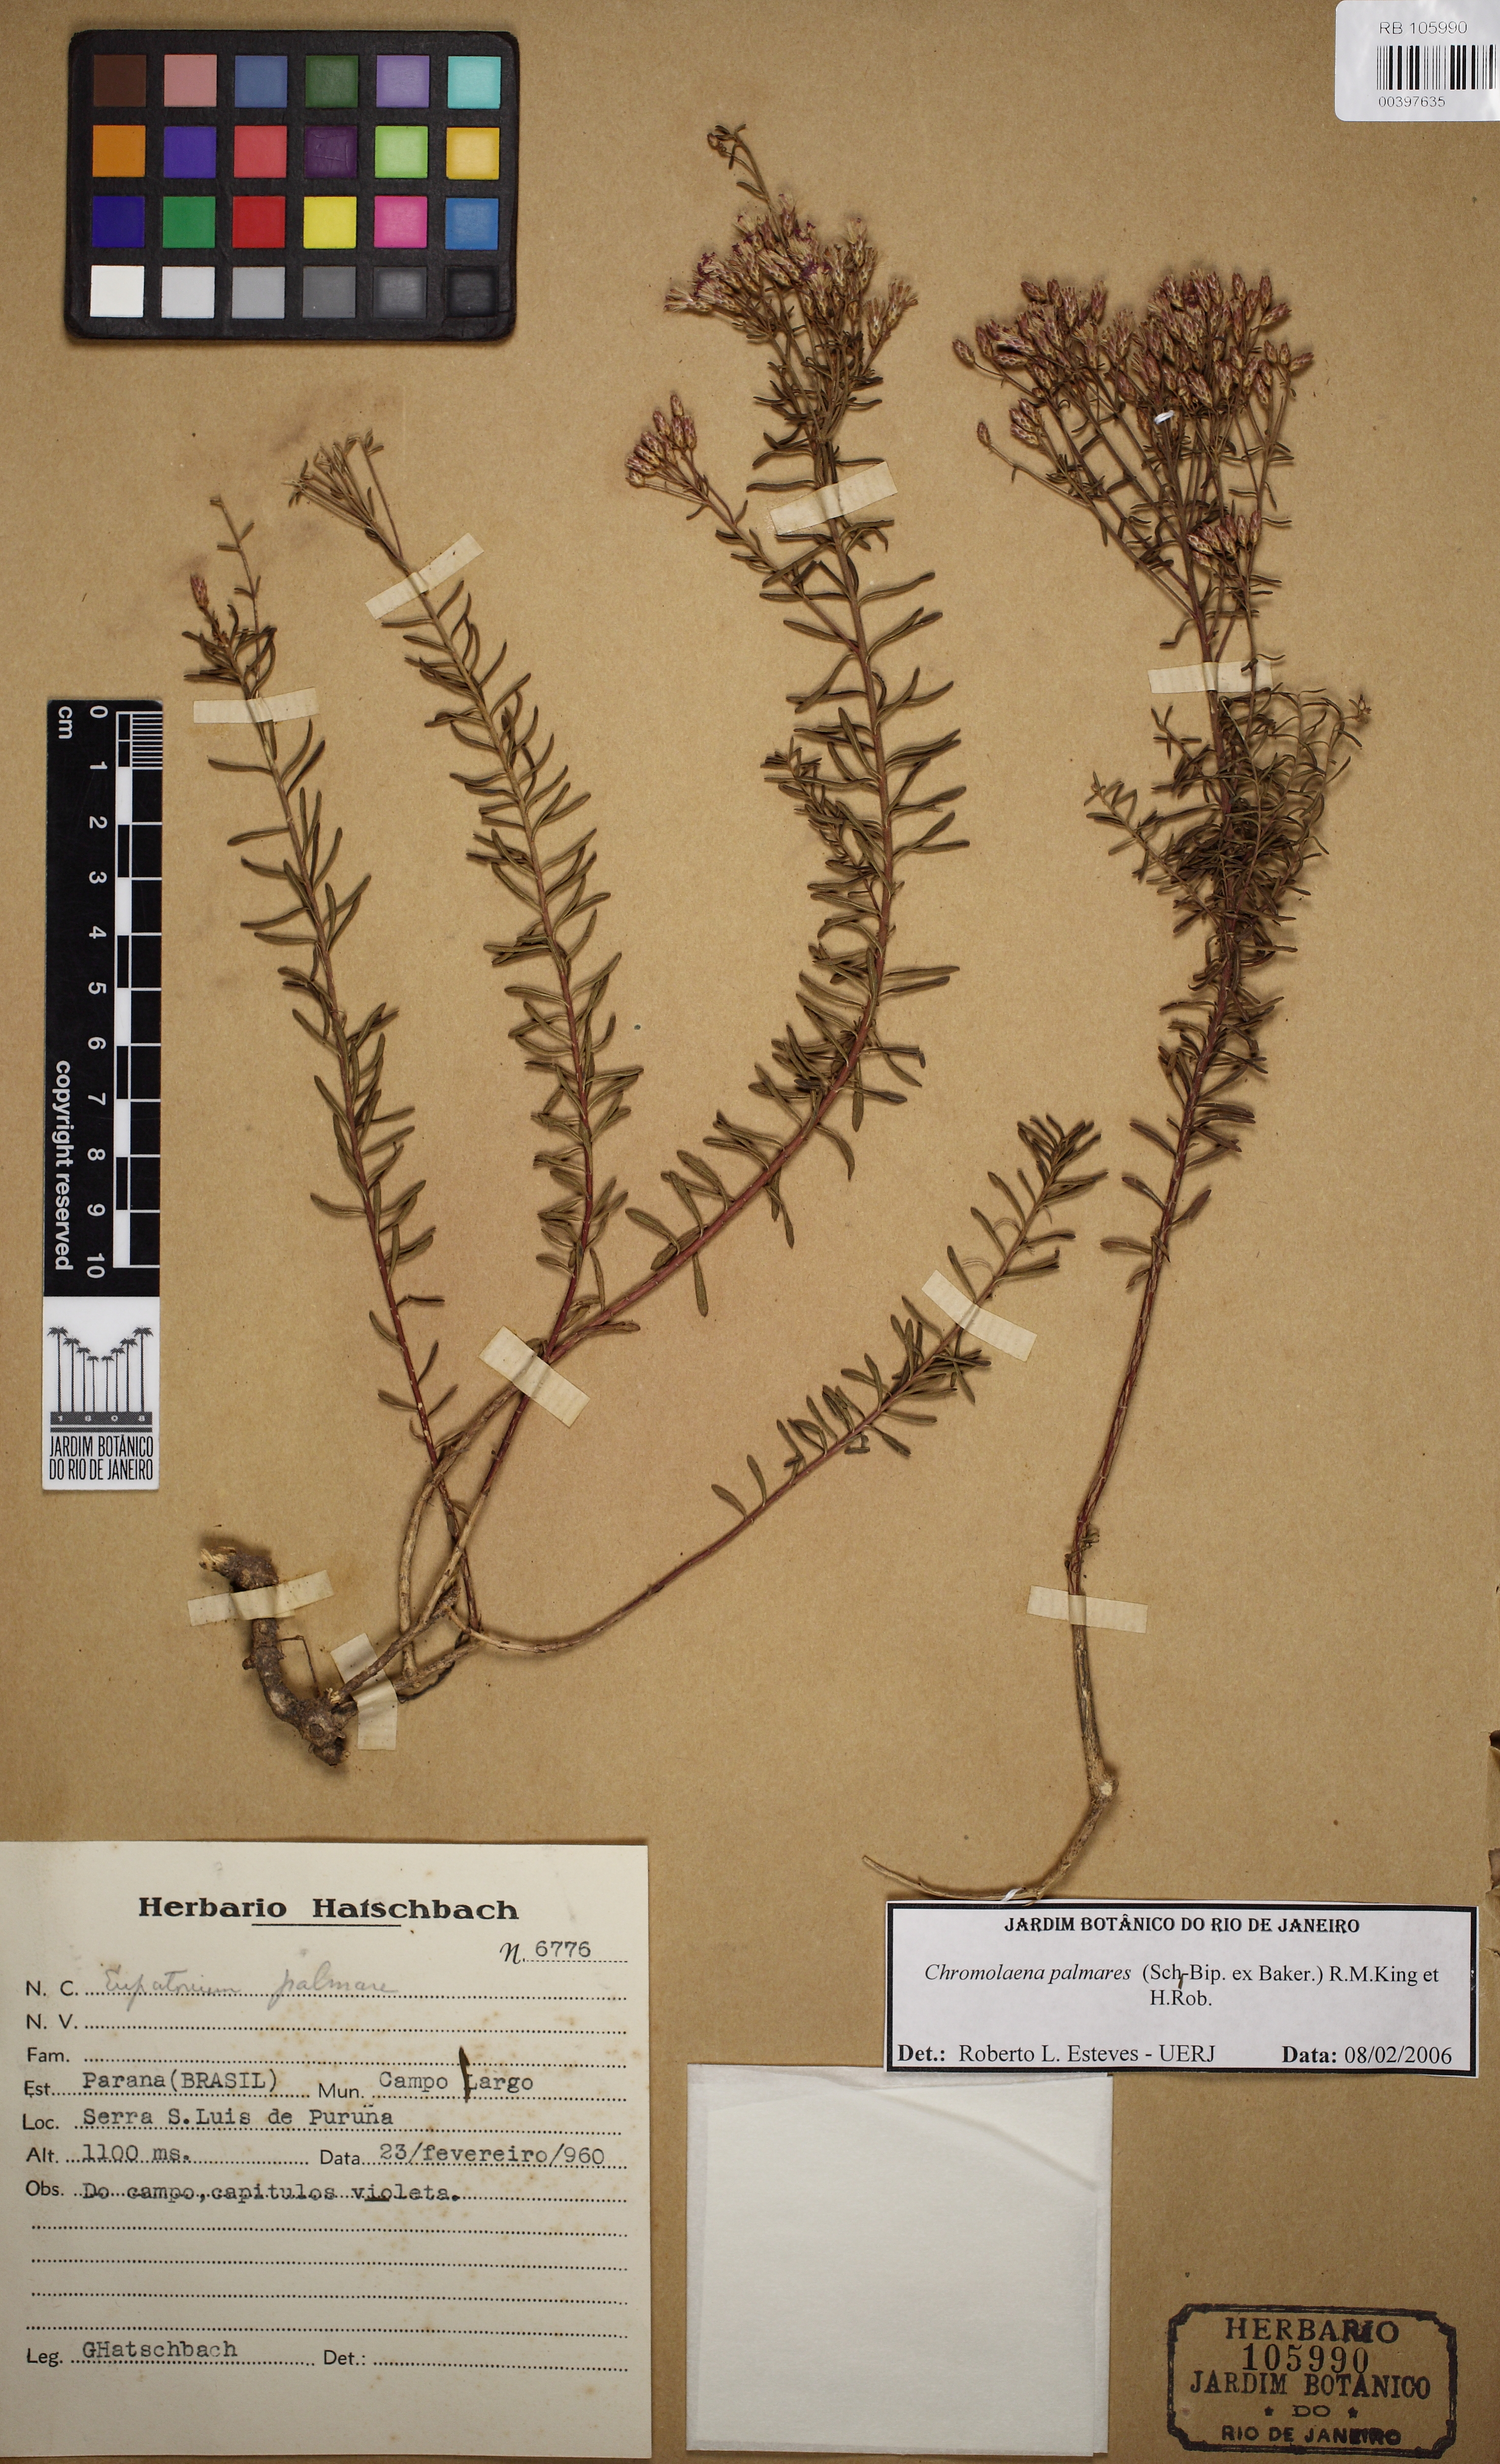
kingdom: Plantae
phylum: Tracheophyta
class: Magnoliopsida
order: Asterales
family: Asteraceae
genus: Chromolaena
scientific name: Chromolaena palmaris
